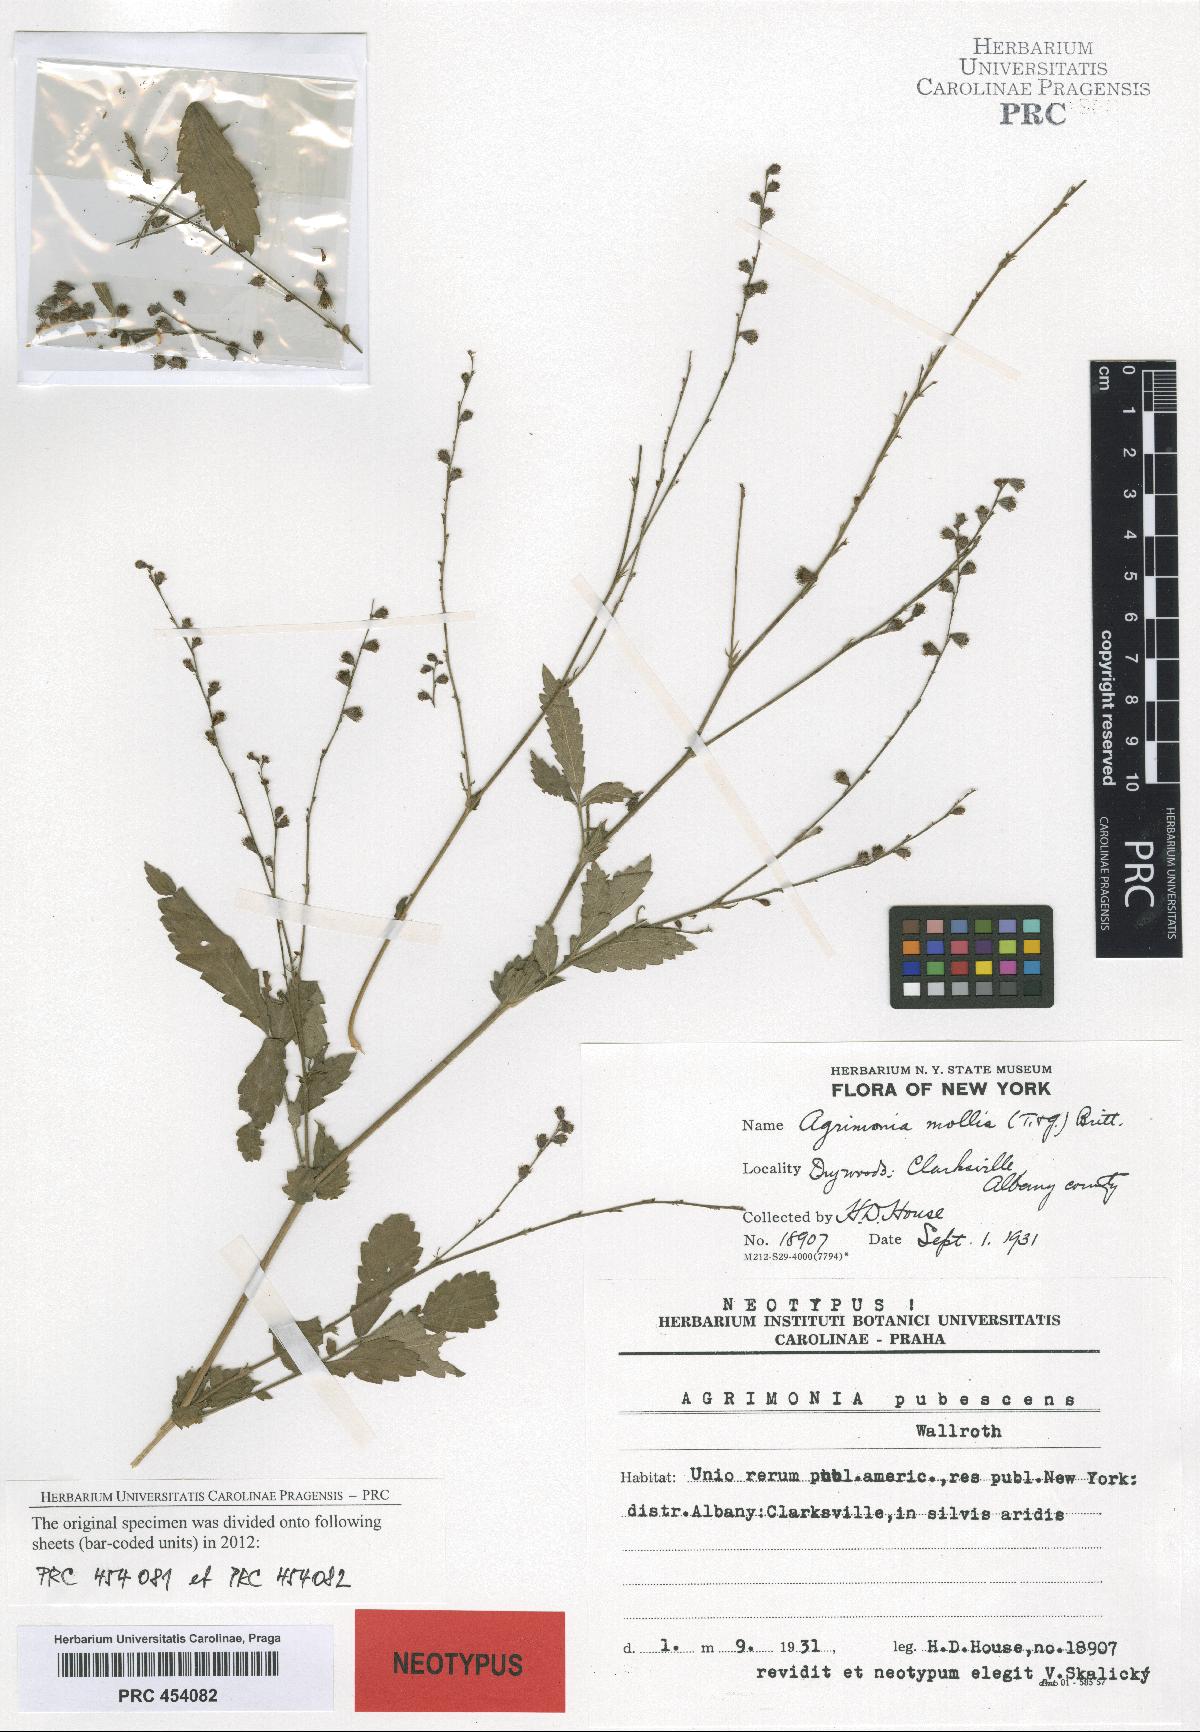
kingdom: Plantae
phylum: Tracheophyta
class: Magnoliopsida
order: Rosales
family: Rosaceae
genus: Agrimonia
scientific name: Agrimonia pubescens
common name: Downy agrimony
